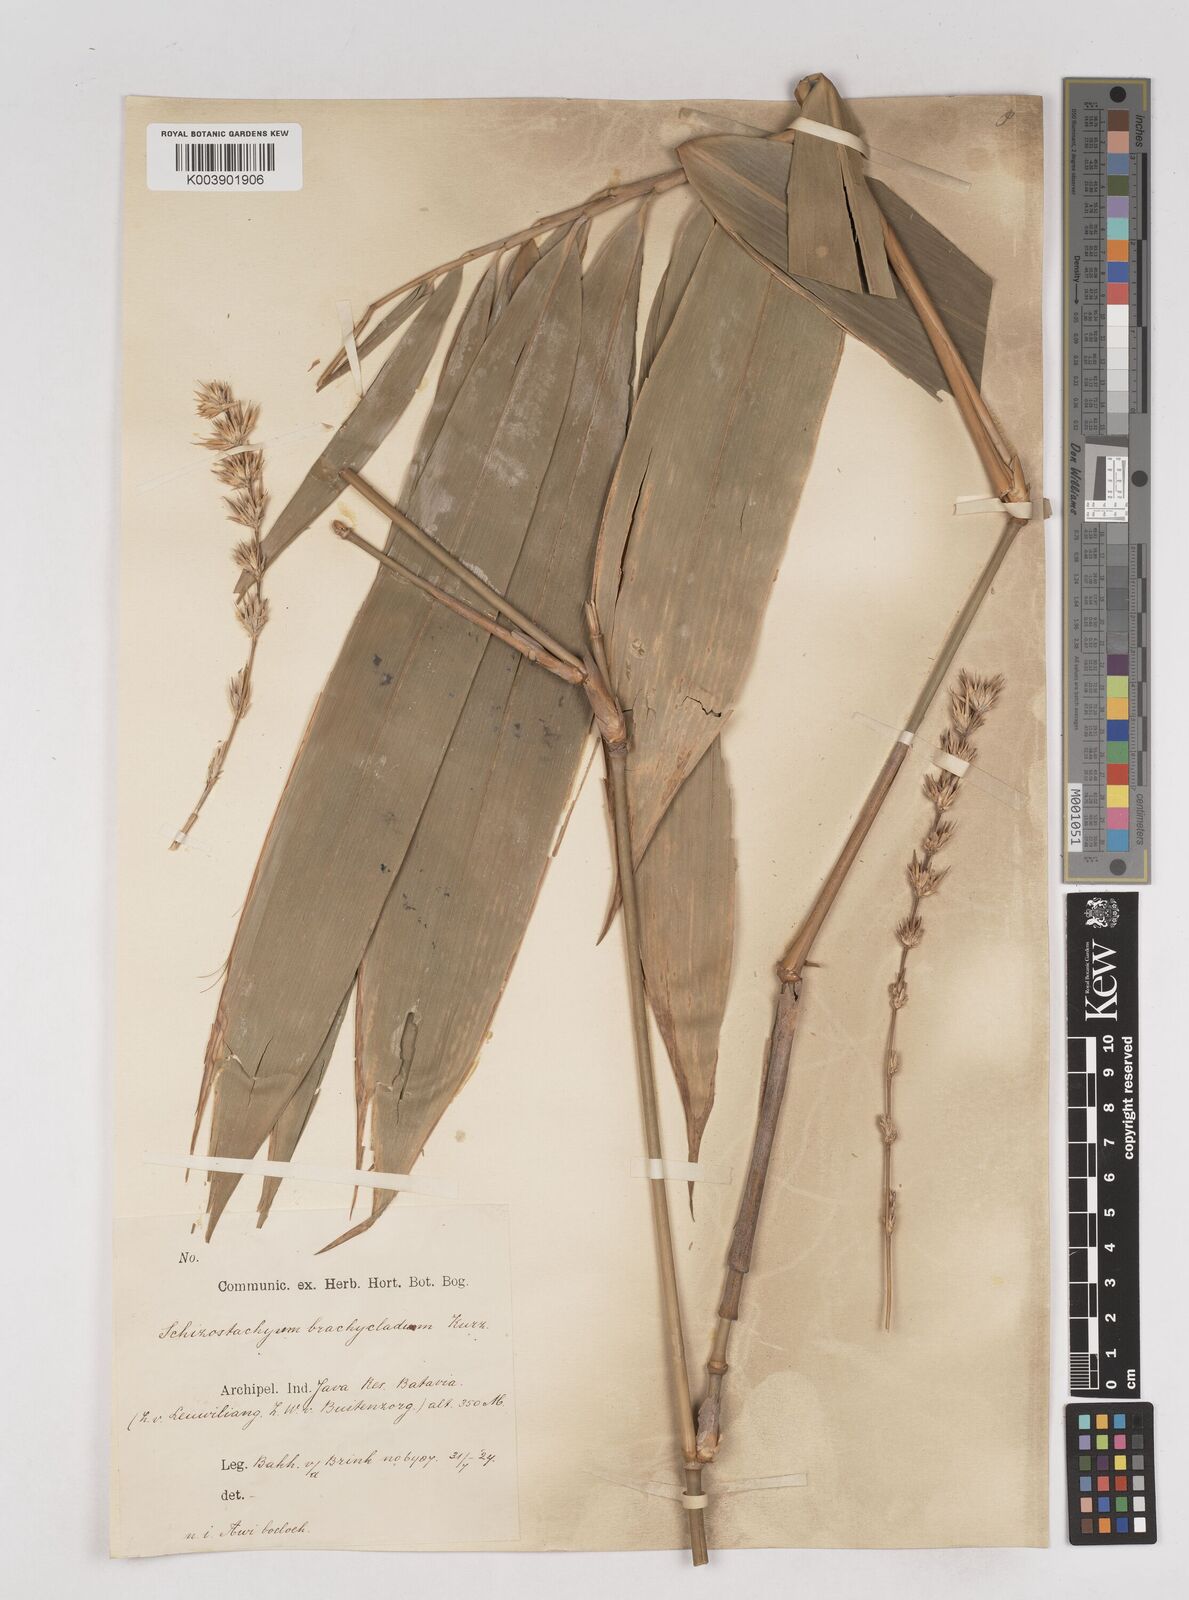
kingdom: Plantae
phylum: Tracheophyta
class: Liliopsida
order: Poales
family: Poaceae
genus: Schizostachyum
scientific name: Schizostachyum brachycladum
